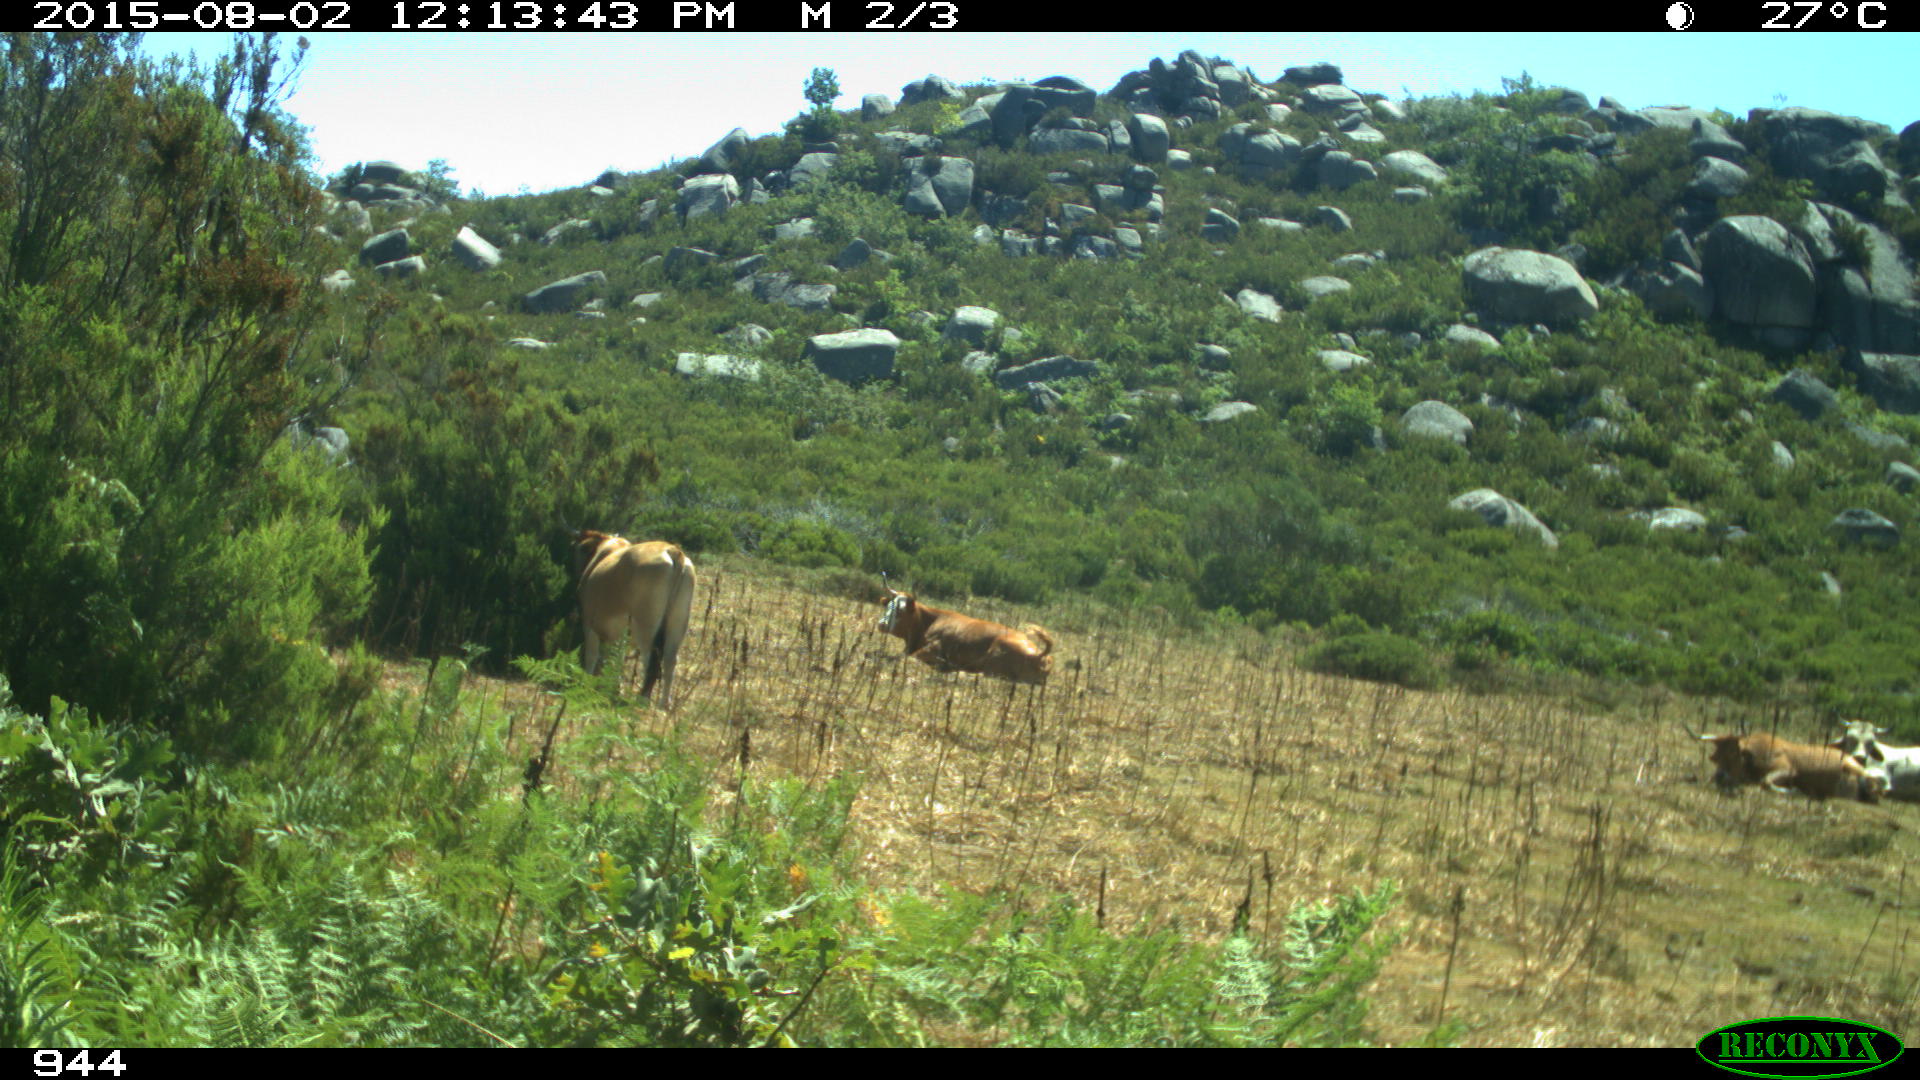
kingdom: Animalia
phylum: Chordata
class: Mammalia
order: Artiodactyla
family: Bovidae
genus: Bos
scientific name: Bos taurus
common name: Domesticated cattle
